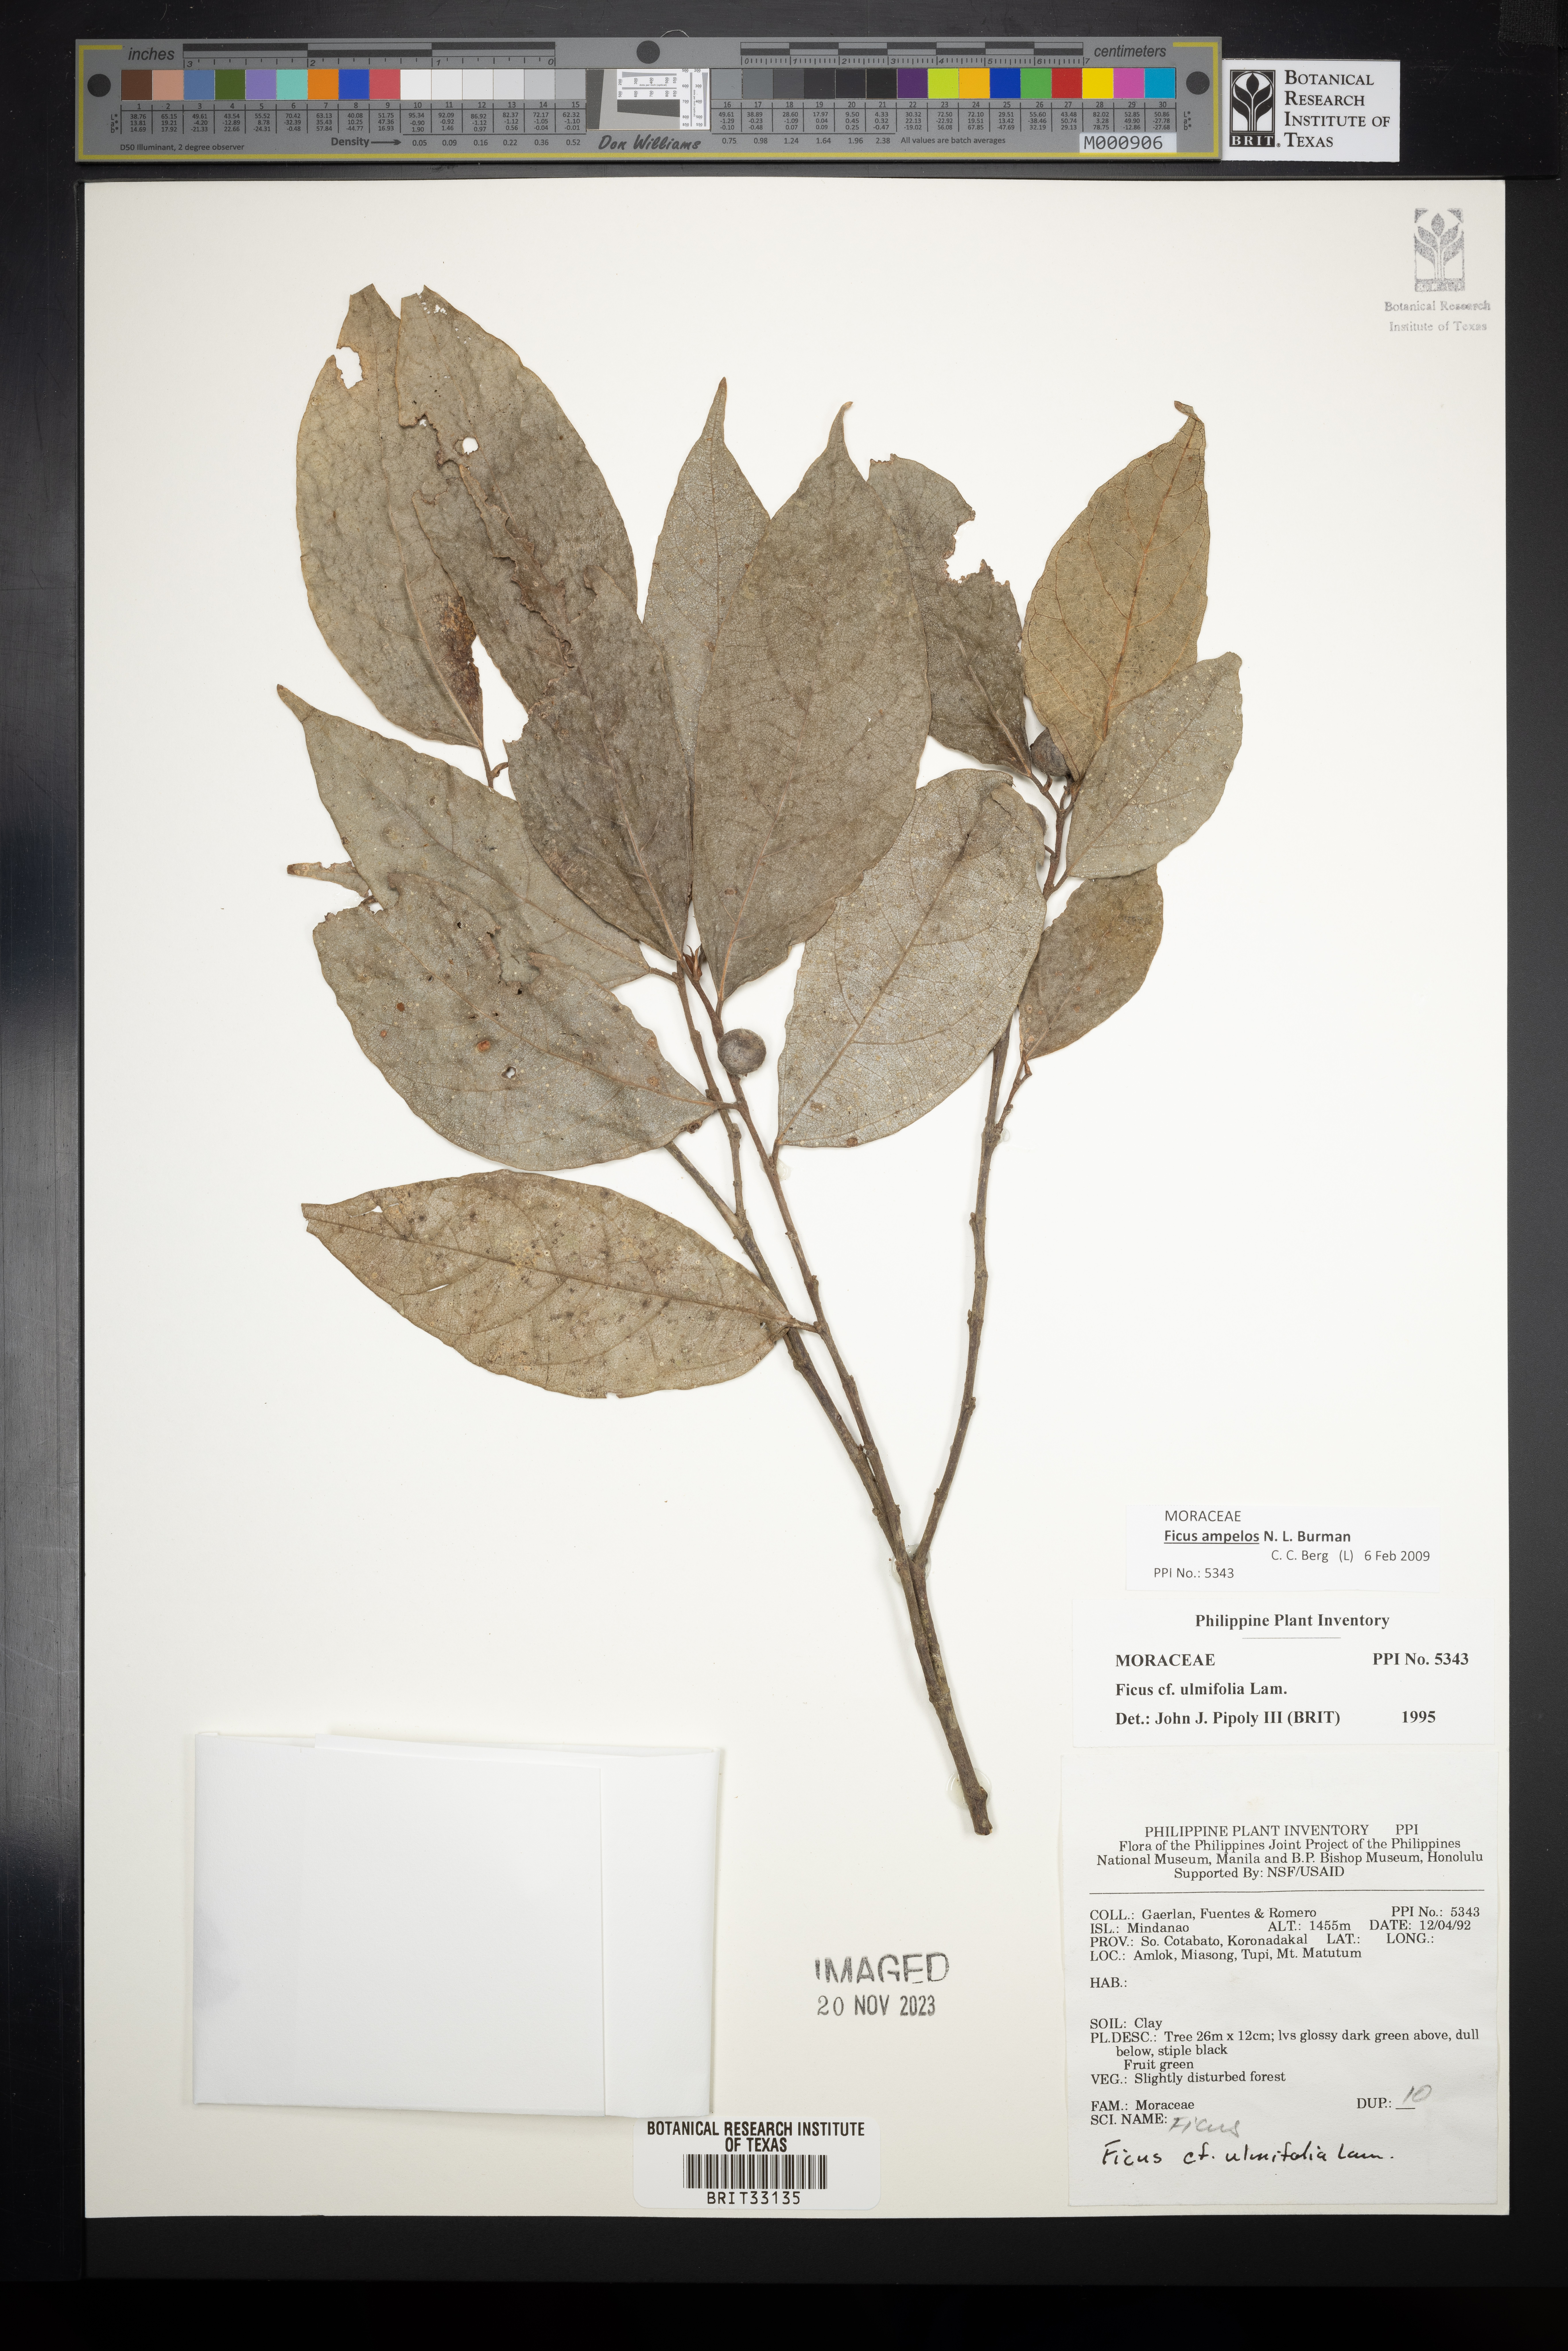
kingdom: Plantae
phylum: Tracheophyta
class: Magnoliopsida
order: Rosales
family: Moraceae
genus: Ficus
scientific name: Ficus ulmifolia
